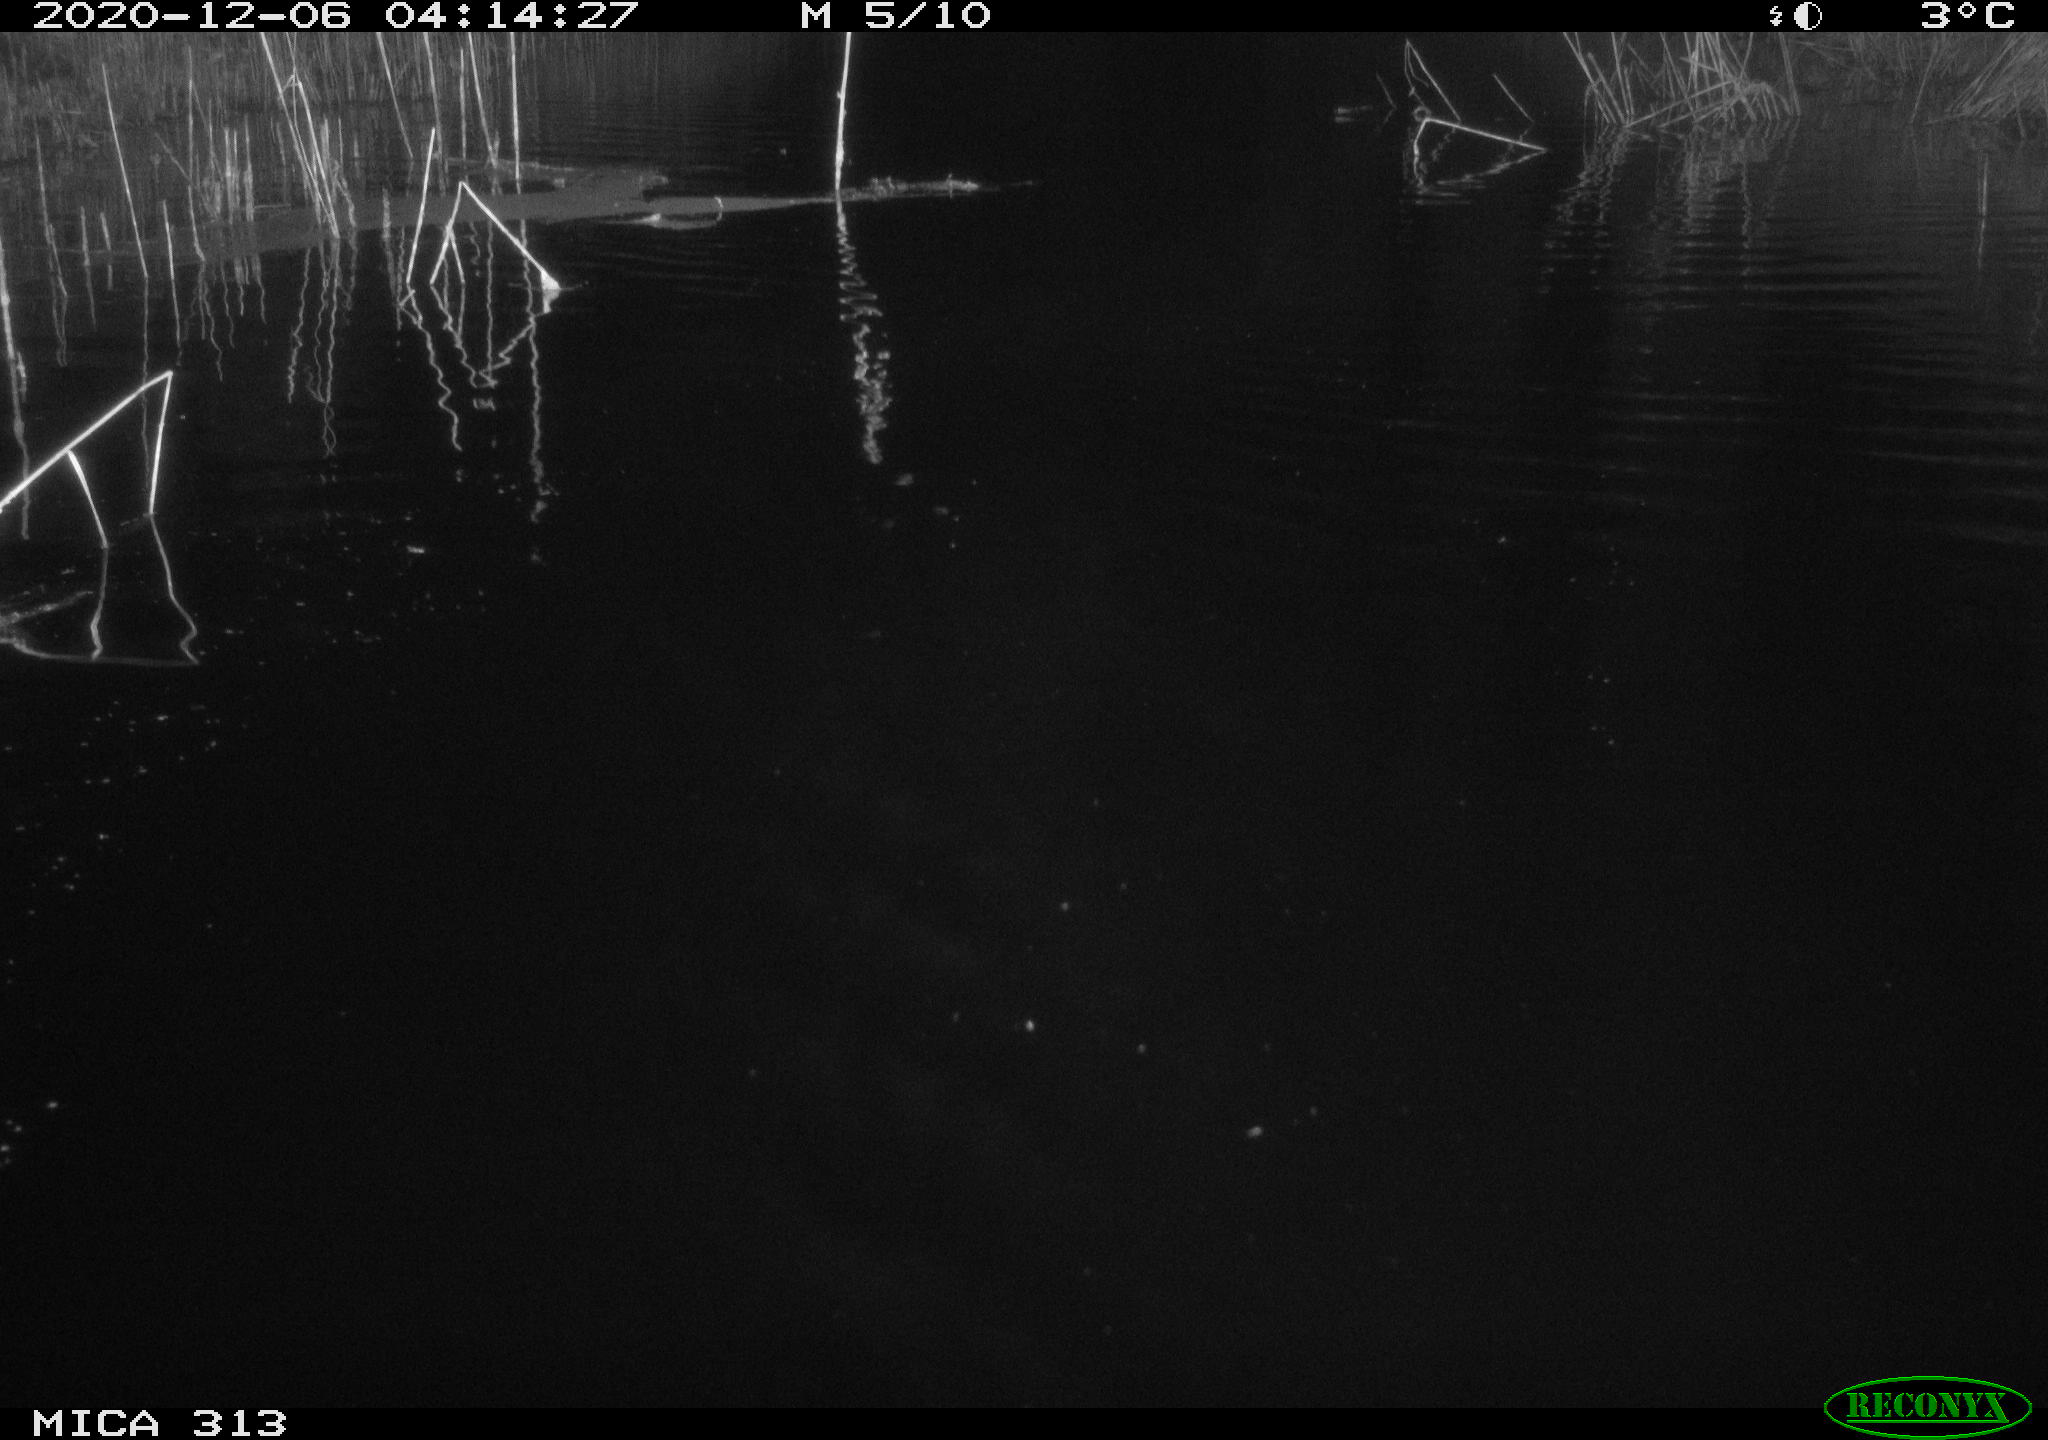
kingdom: Animalia
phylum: Chordata
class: Mammalia
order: Rodentia
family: Muridae
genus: Rattus
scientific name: Rattus norvegicus
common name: Brown rat
